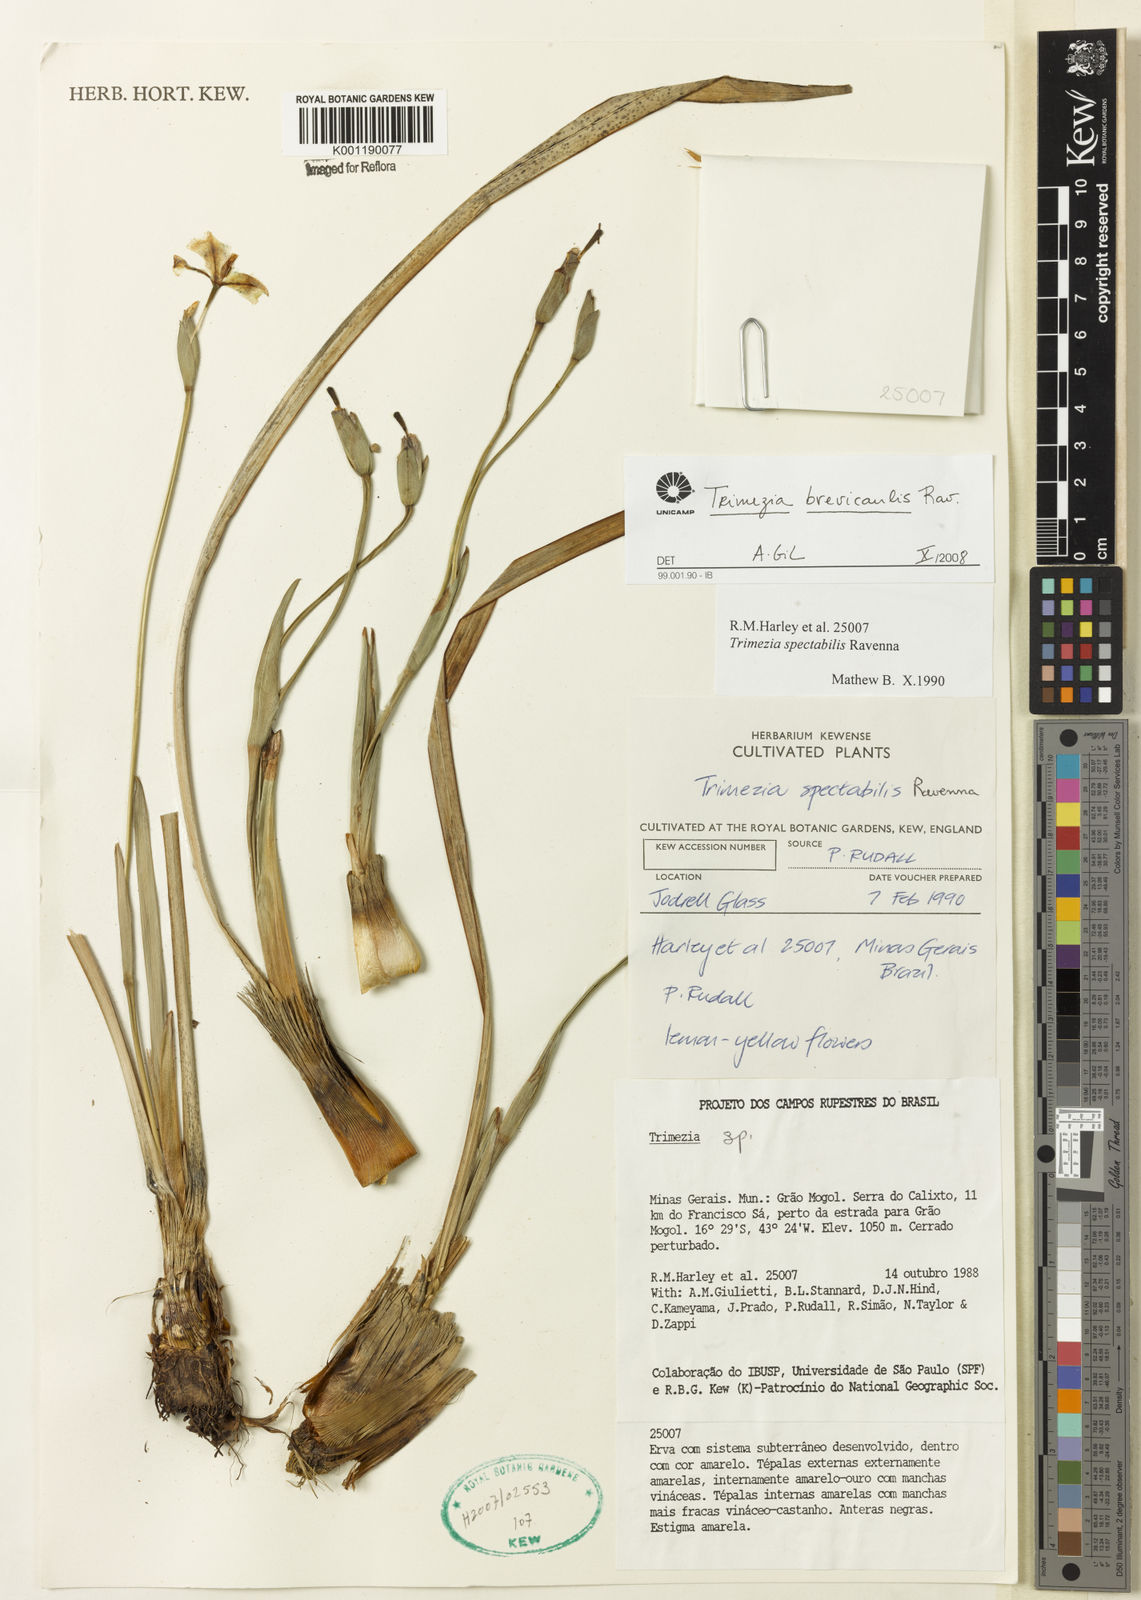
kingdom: Plantae
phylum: Tracheophyta
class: Liliopsida
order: Asparagales
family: Iridaceae
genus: Trimezia
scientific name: Trimezia brevicaulis
